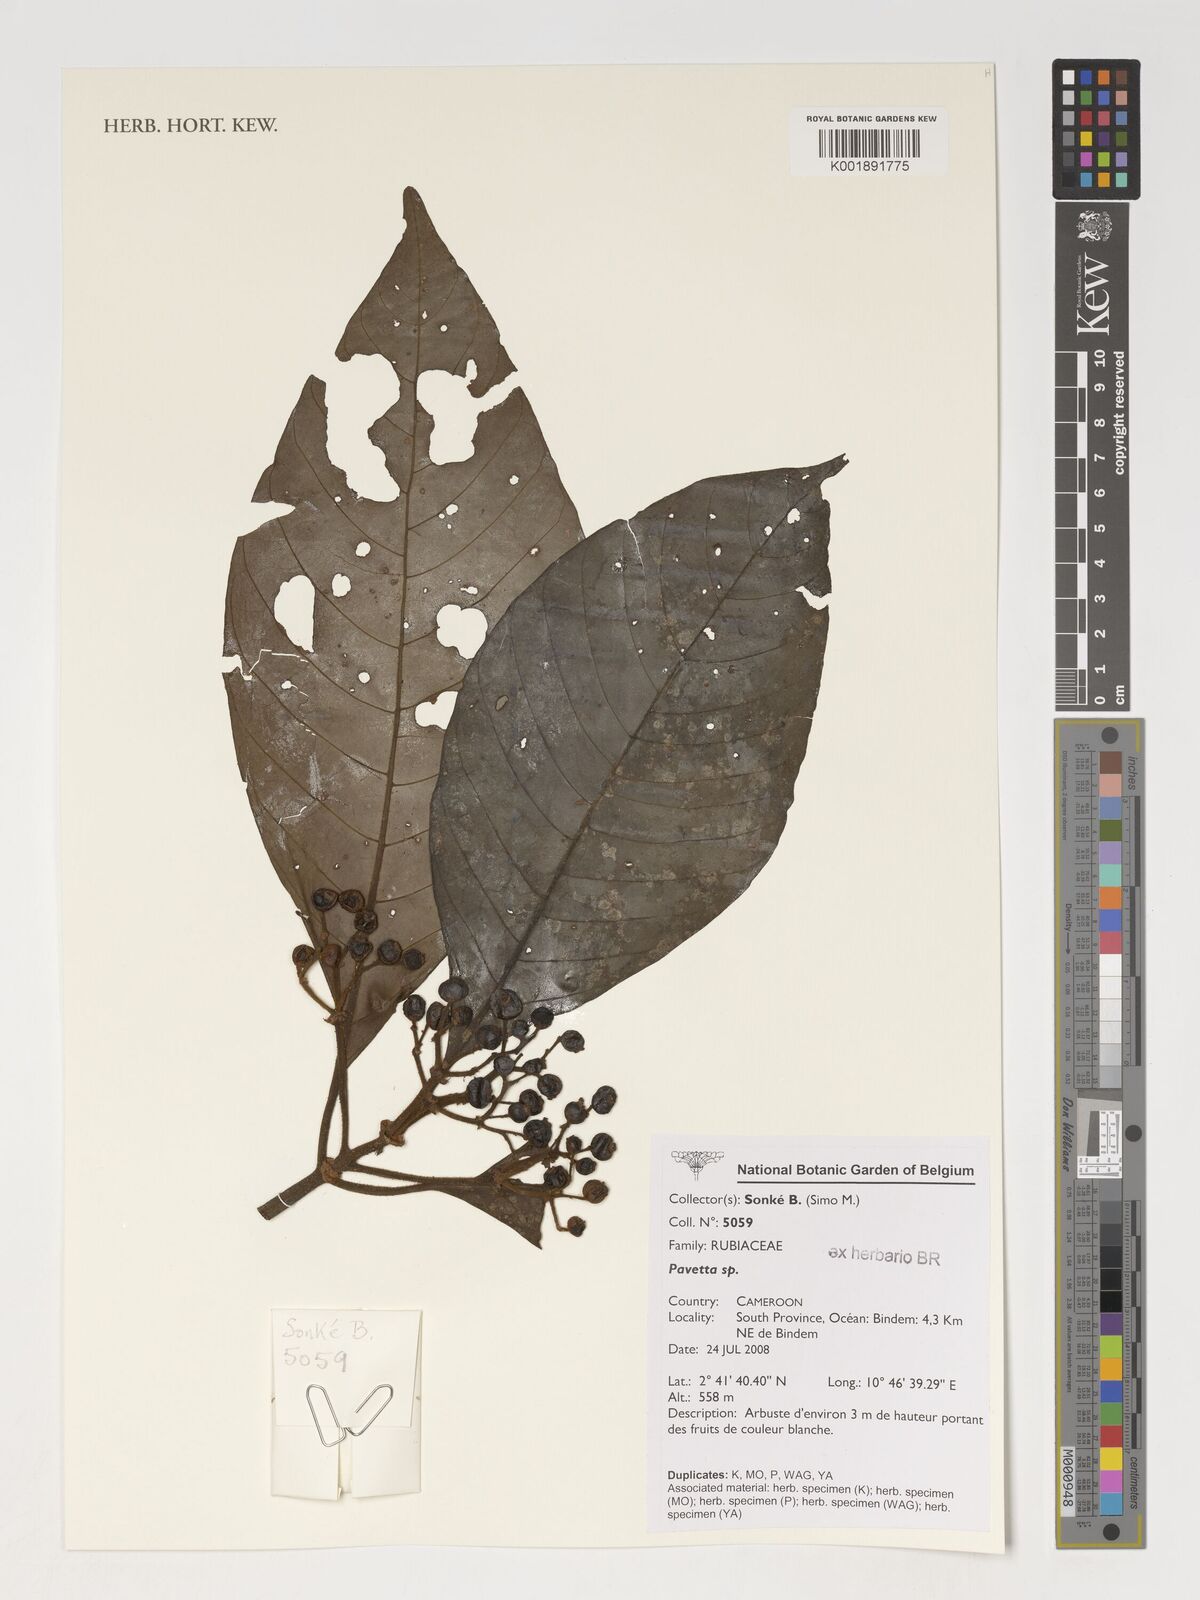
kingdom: Plantae
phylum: Tracheophyta
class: Magnoliopsida
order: Gentianales
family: Rubiaceae
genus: Pavetta
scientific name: Pavetta
